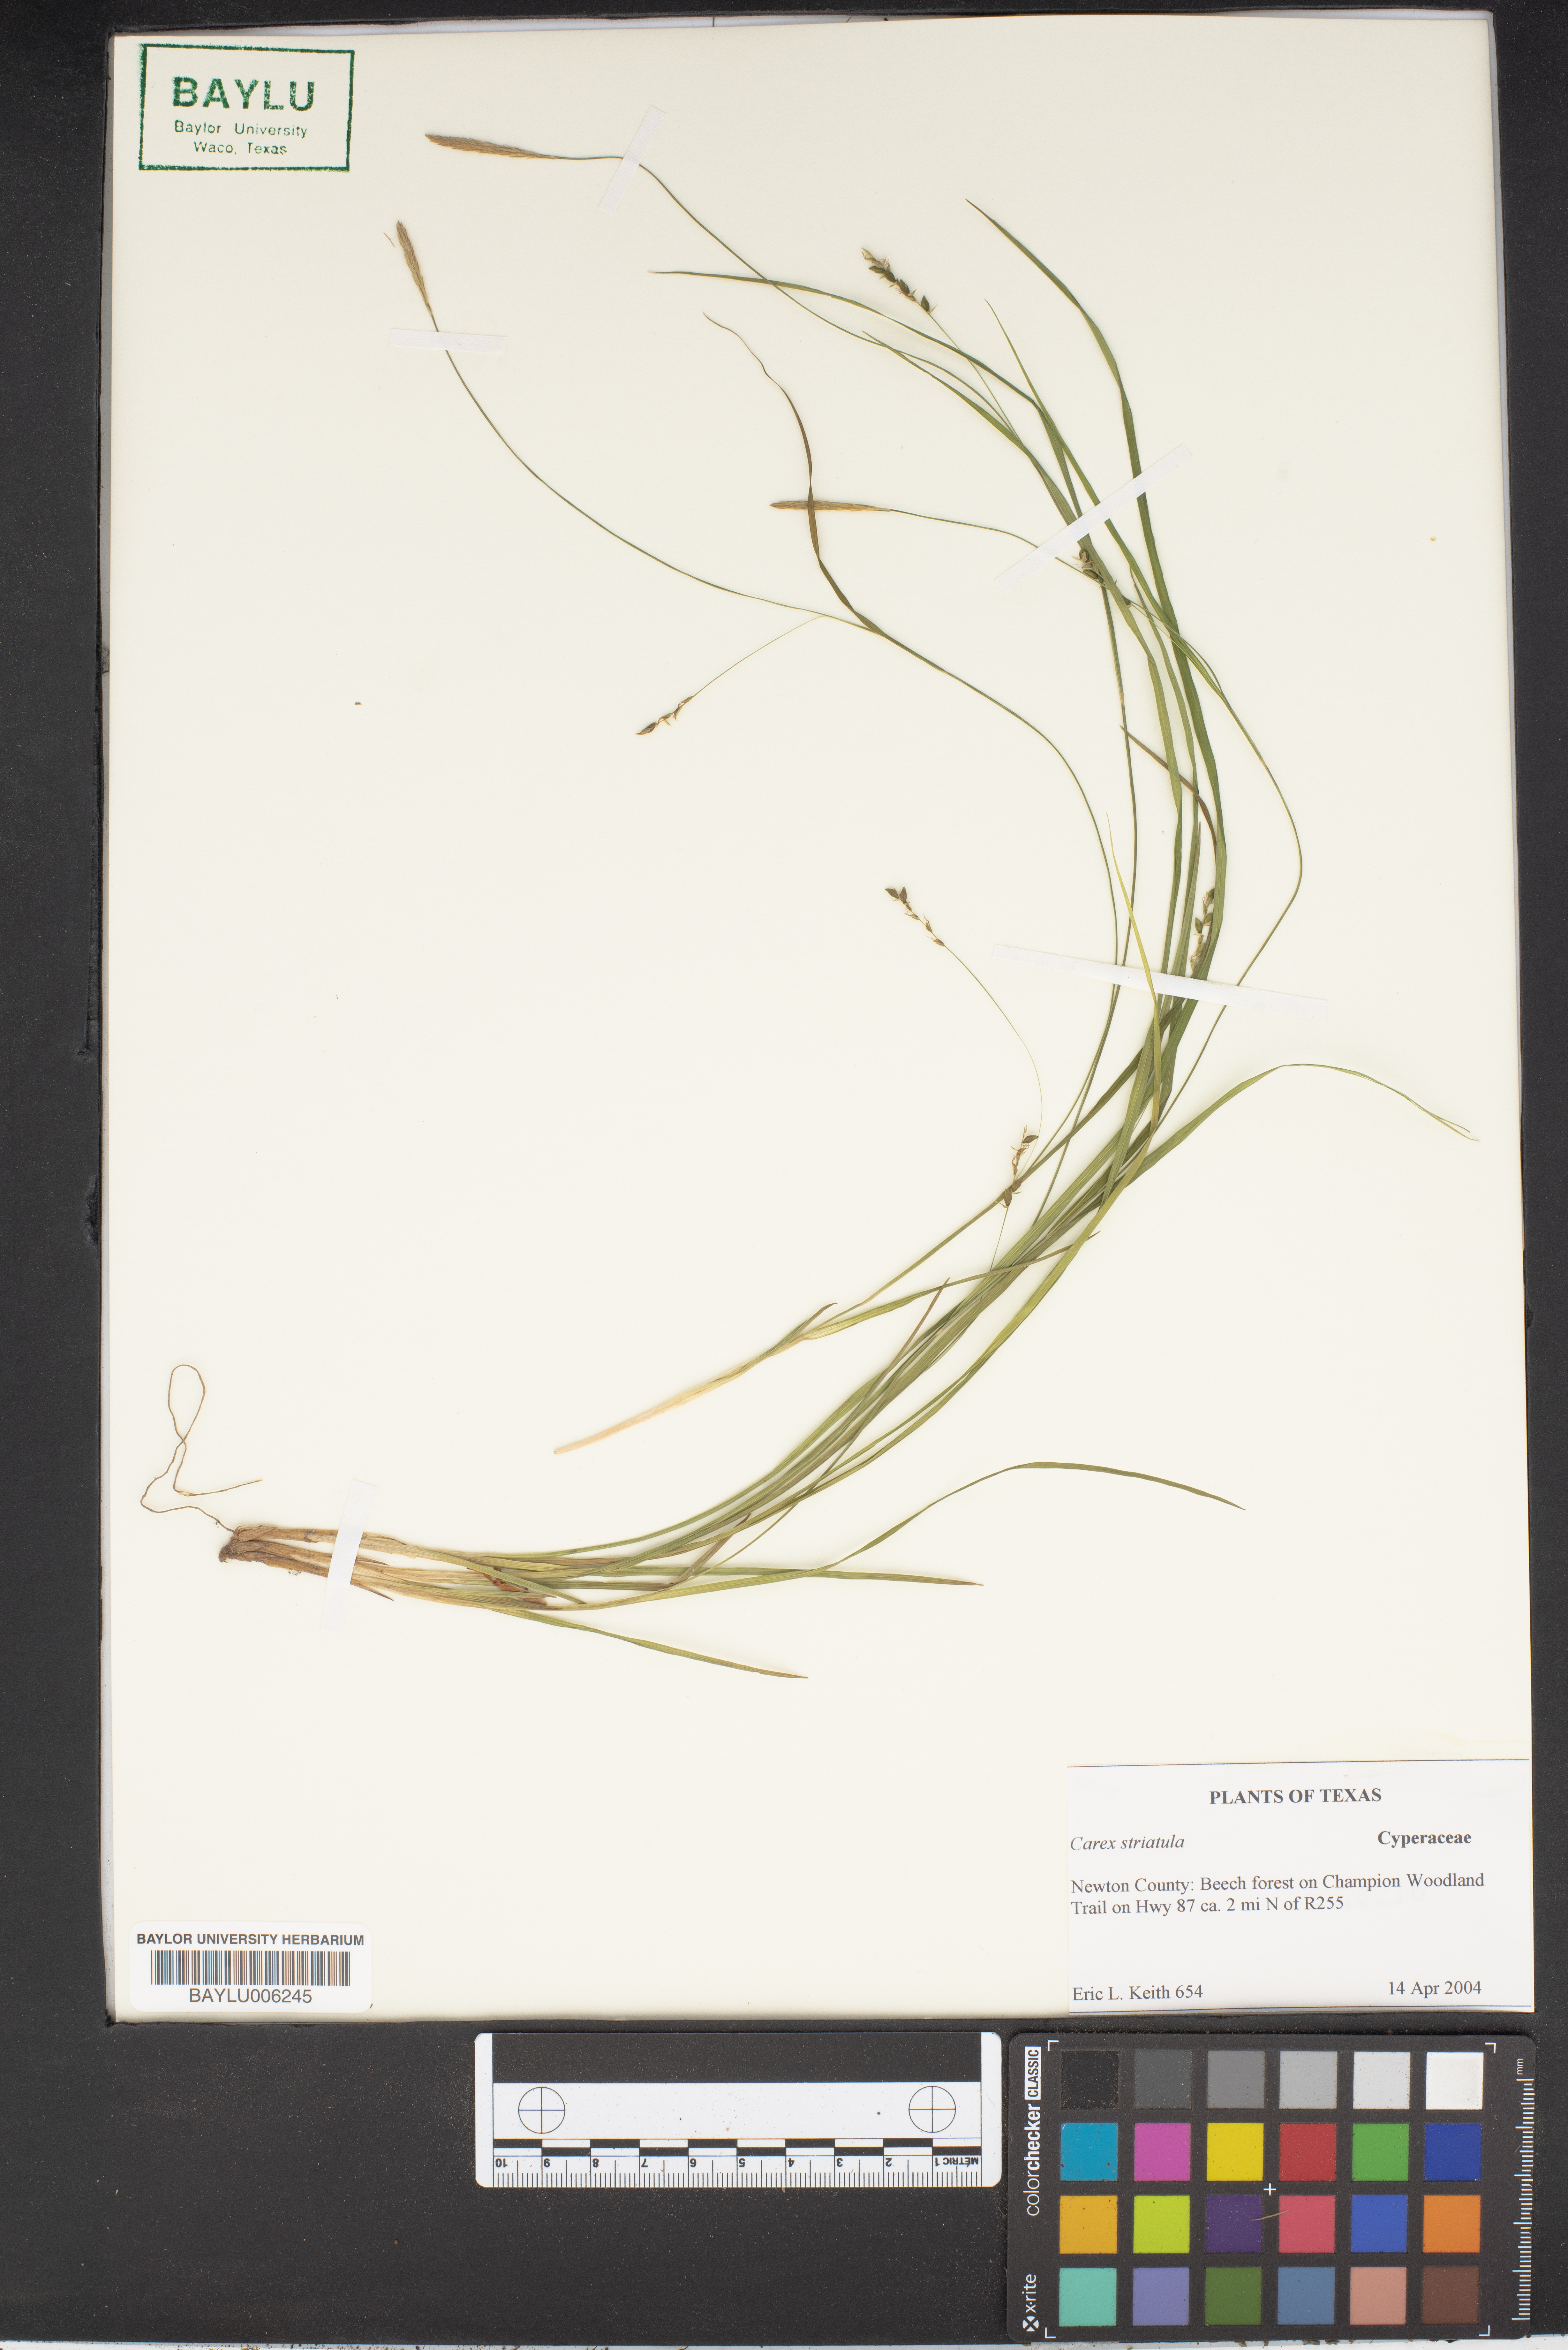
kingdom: Plantae
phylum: Tracheophyta
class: Liliopsida
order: Poales
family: Cyperaceae
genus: Carex
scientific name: Carex striatula
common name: Lined sedge
